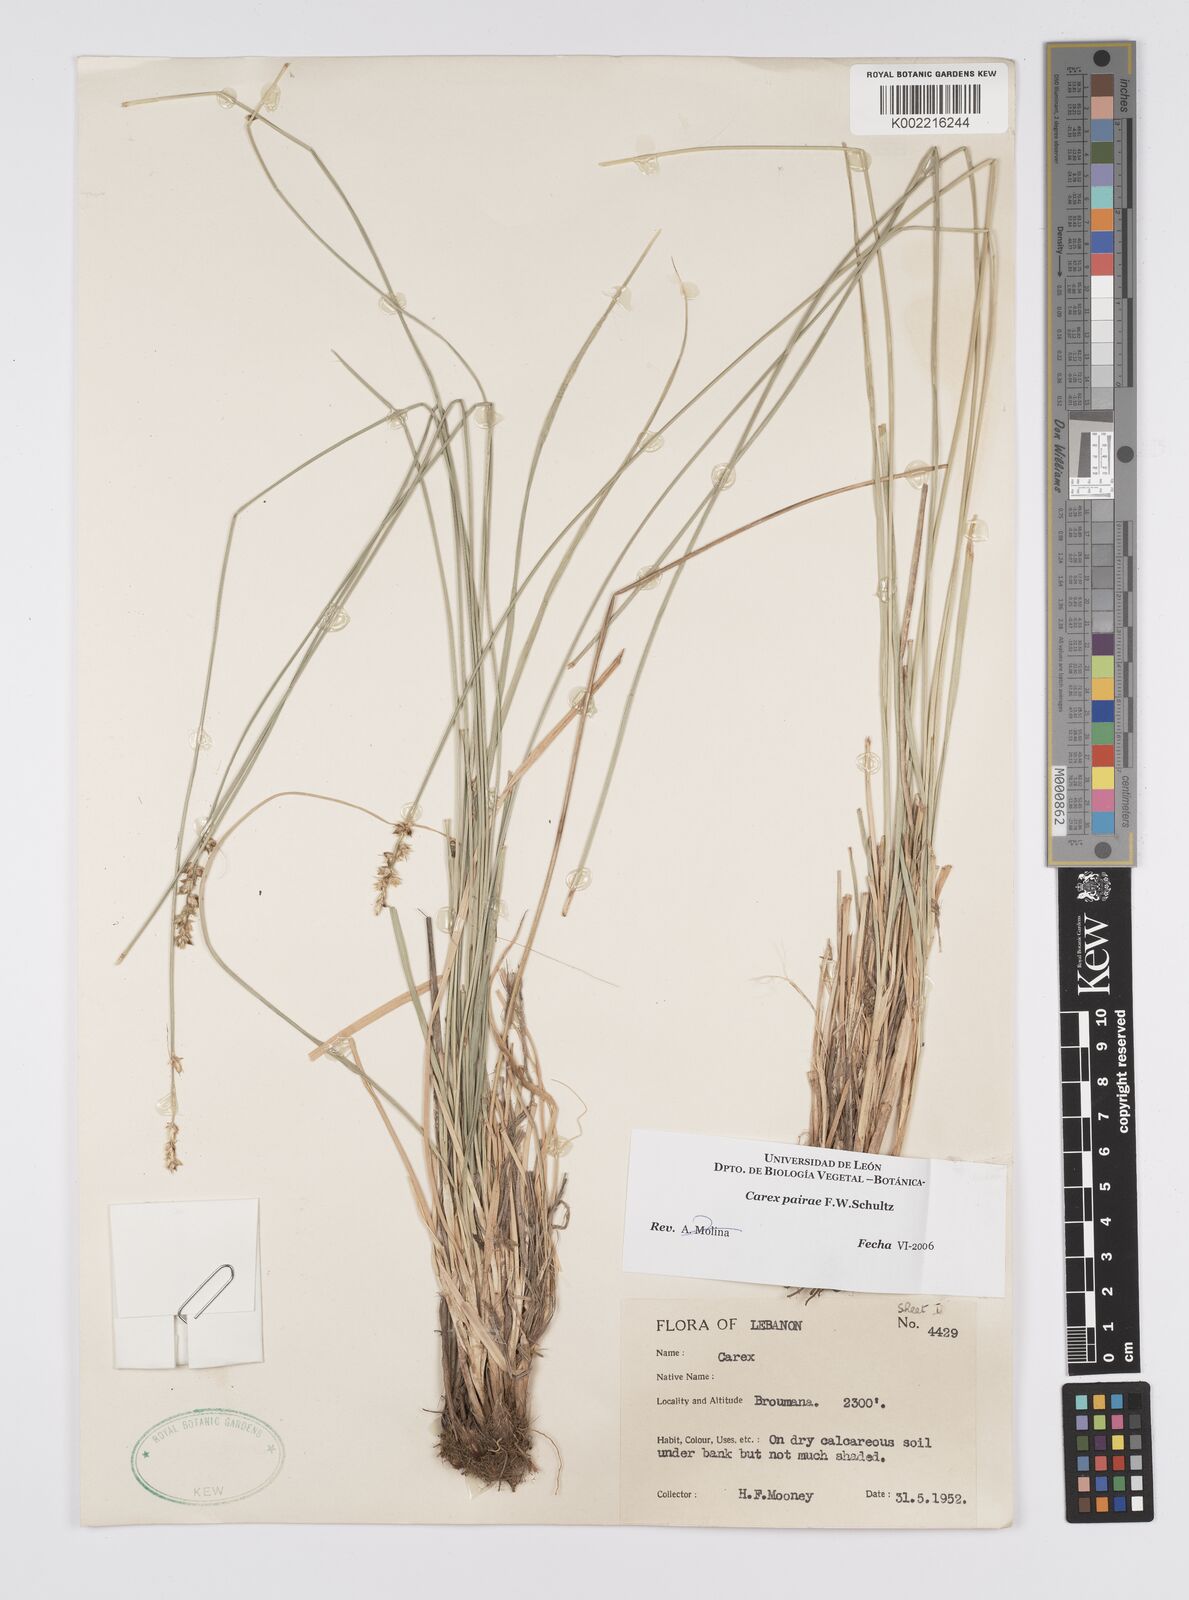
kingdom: Plantae
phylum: Tracheophyta
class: Liliopsida
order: Poales
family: Cyperaceae
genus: Carex
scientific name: Carex muricata
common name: Rough sedge
